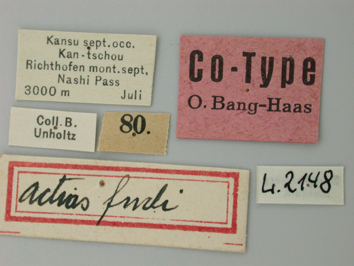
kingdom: Animalia
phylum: Arthropoda
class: Insecta
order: Lepidoptera
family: Papilionidae
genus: Parnassius
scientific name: Parnassius actius
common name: Scarce red apollo
